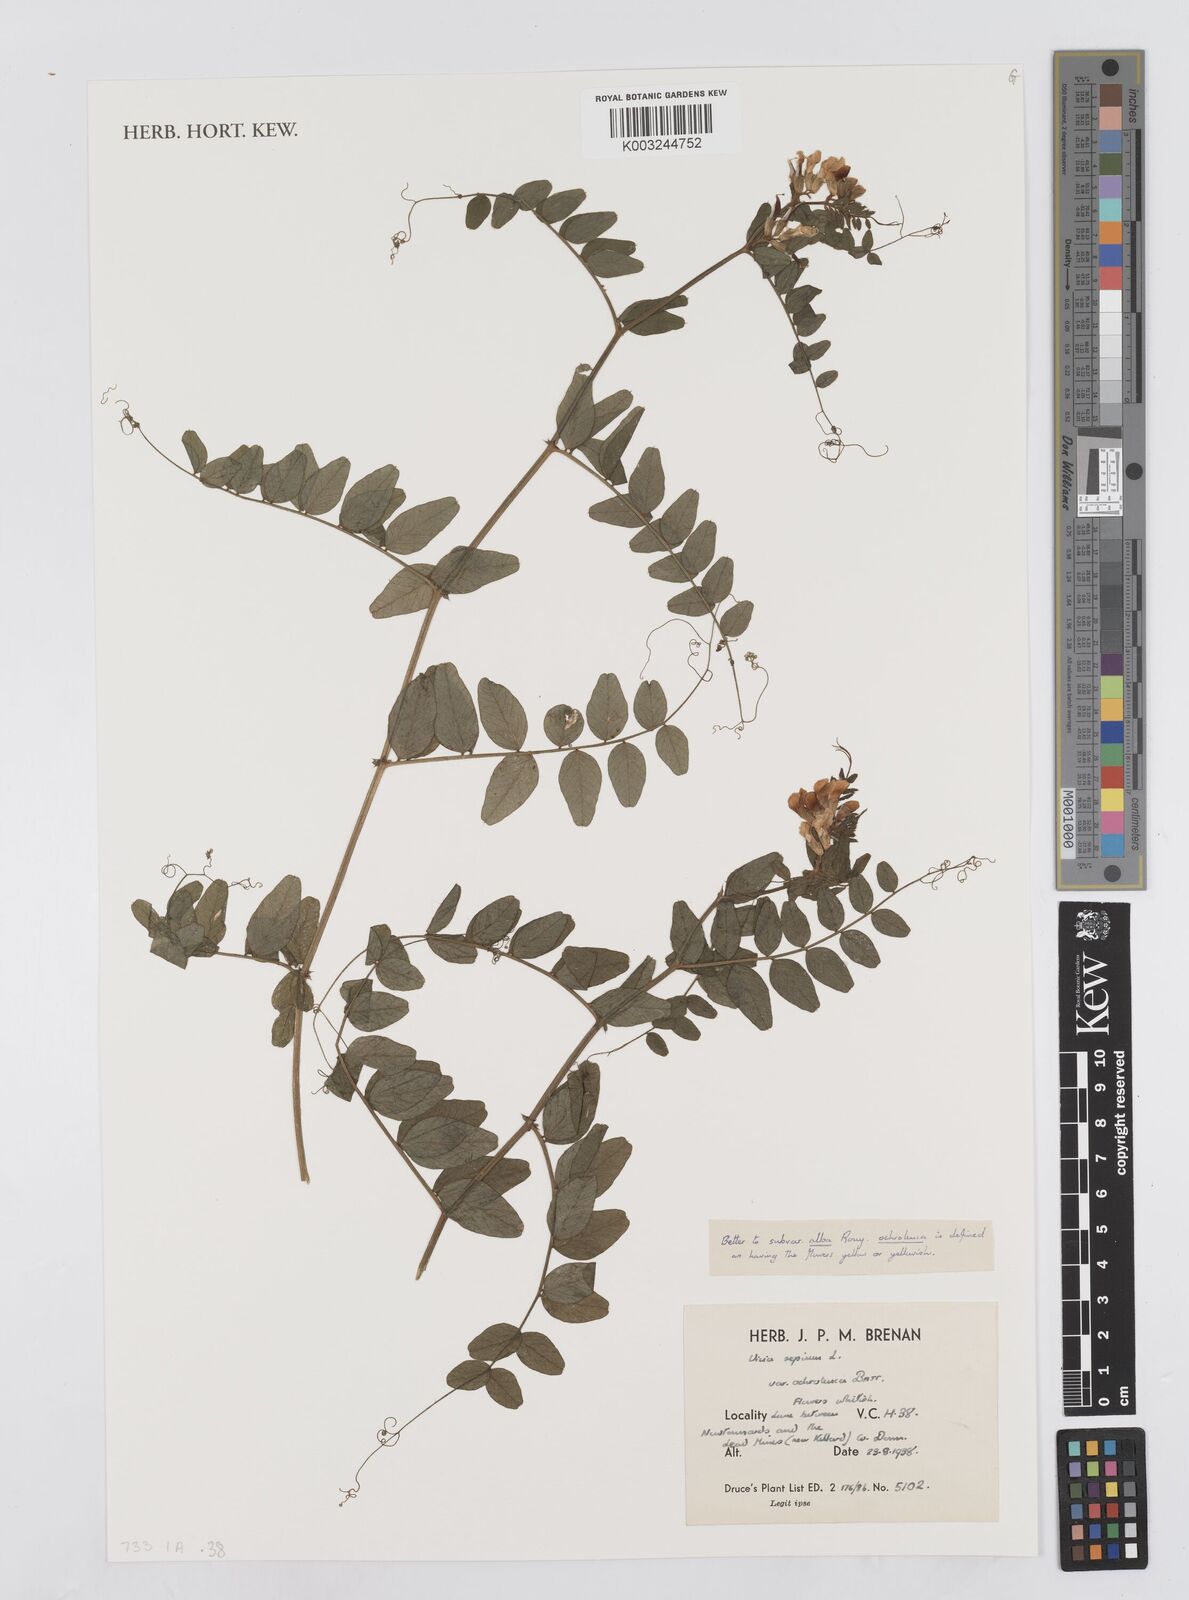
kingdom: Plantae
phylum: Tracheophyta
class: Magnoliopsida
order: Fabales
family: Fabaceae
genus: Vicia
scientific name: Vicia sepium
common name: Bush vetch
